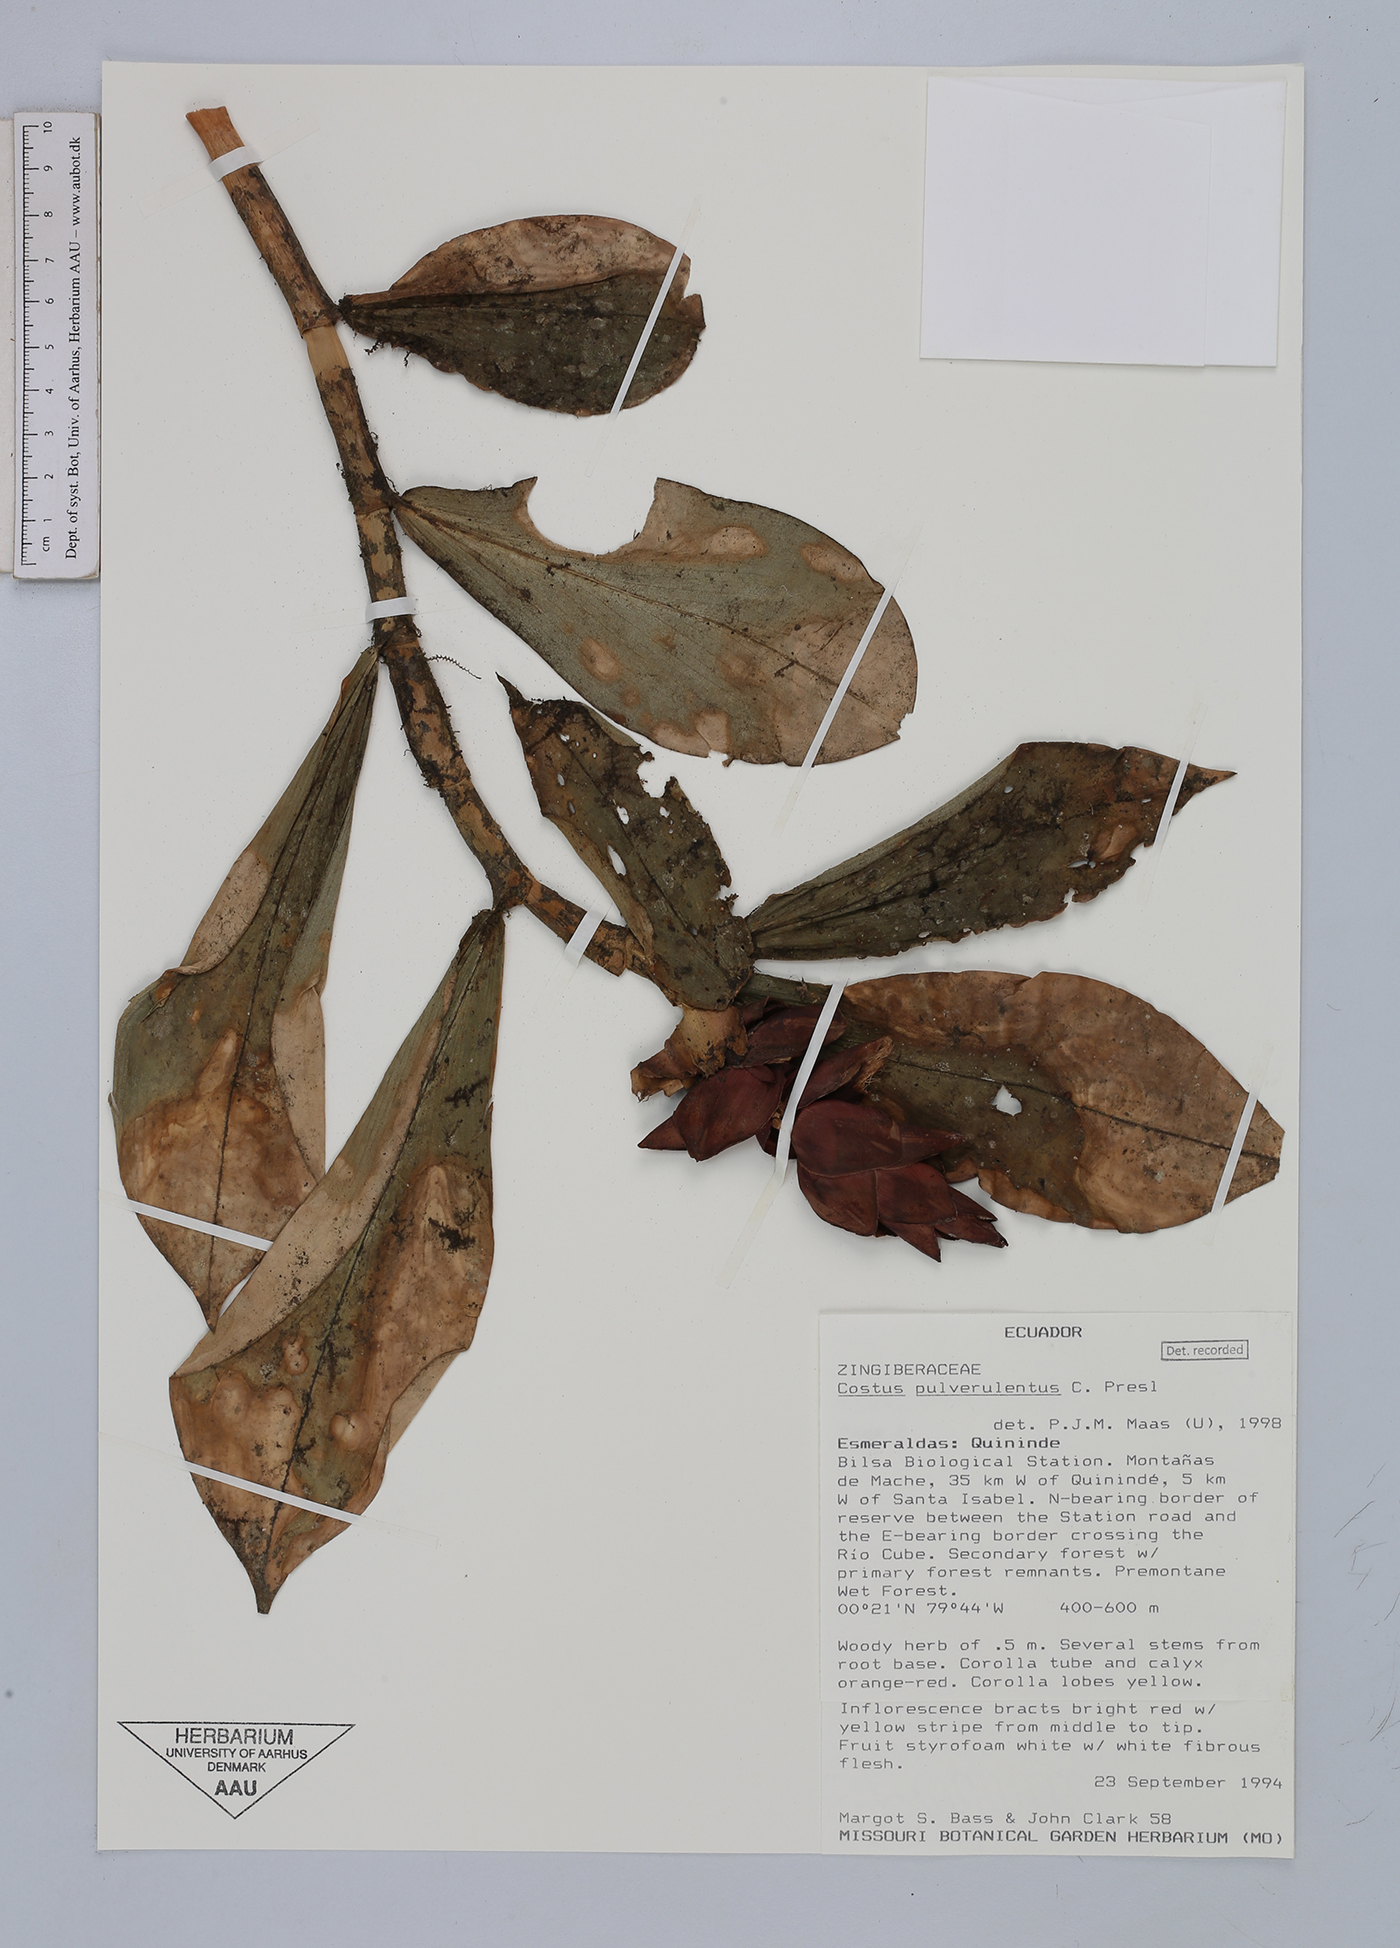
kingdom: Plantae
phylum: Tracheophyta
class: Liliopsida
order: Zingiberales
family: Costaceae
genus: Costus
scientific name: Costus pulverulentus
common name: Spiral ginger
